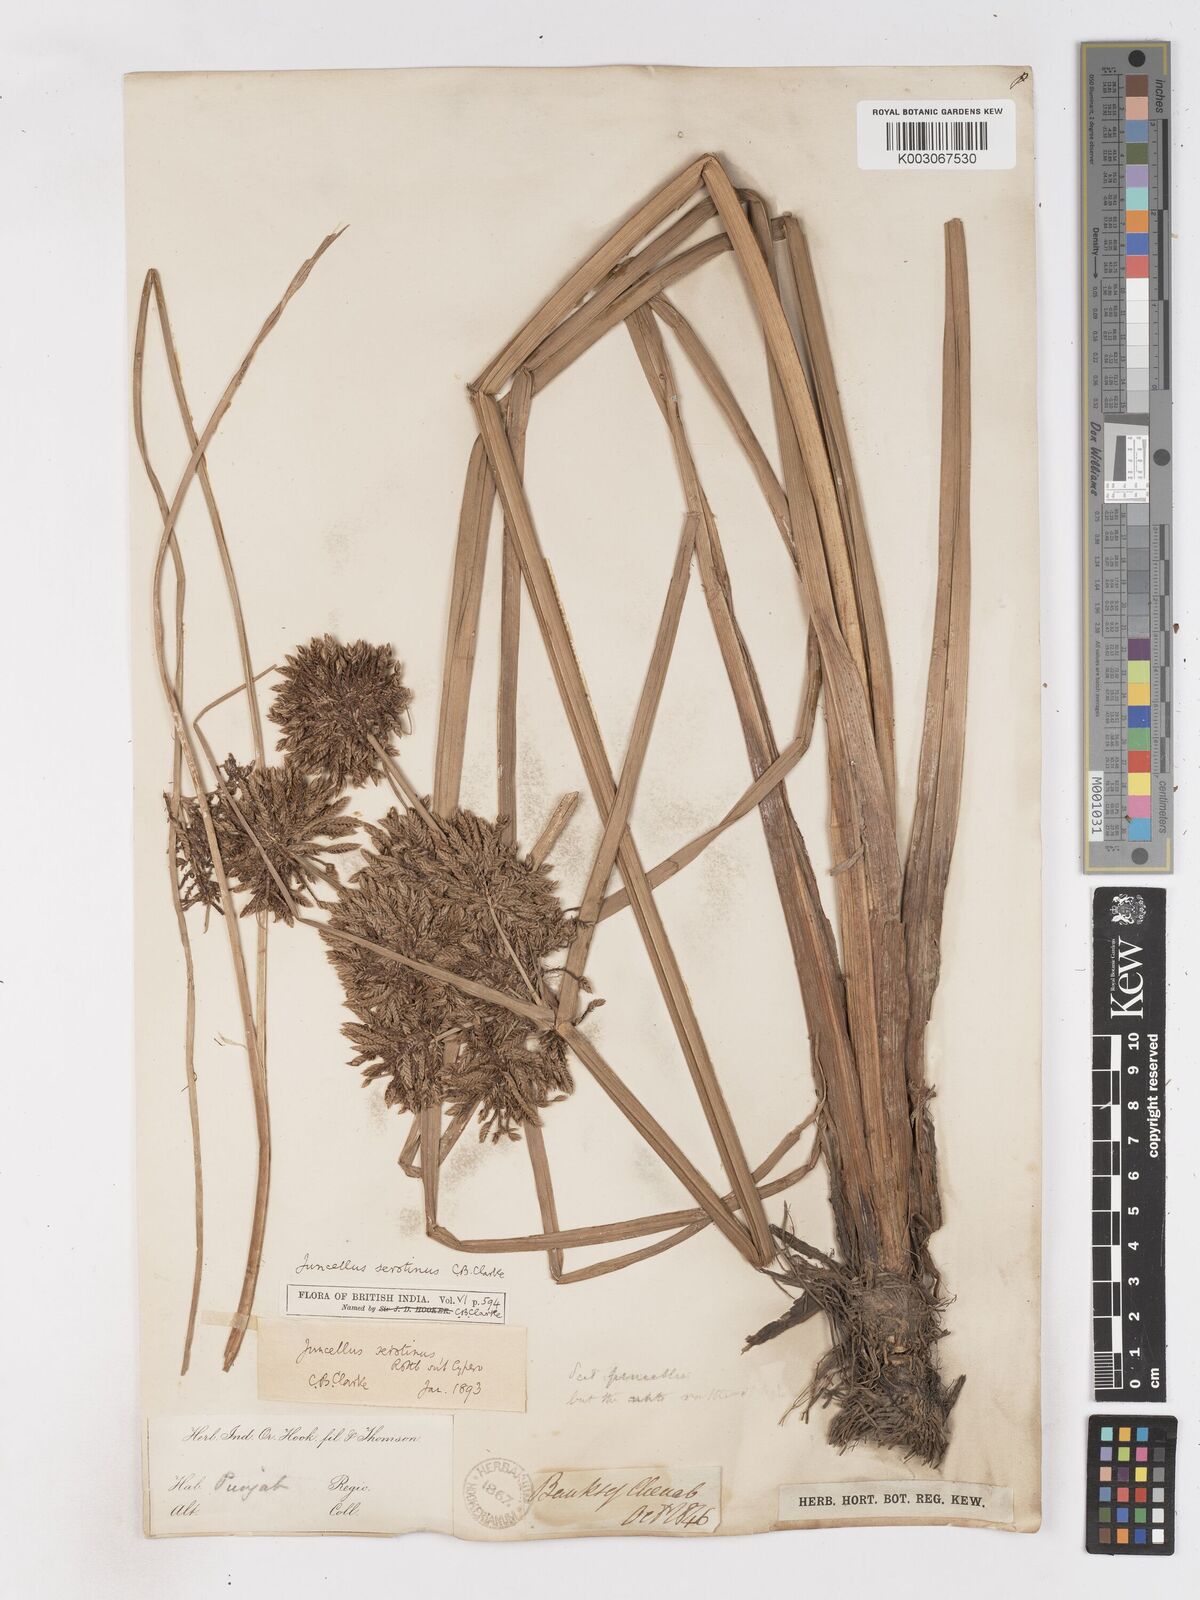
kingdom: Plantae
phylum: Tracheophyta
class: Liliopsida
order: Poales
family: Cyperaceae
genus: Cyperus
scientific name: Cyperus serotinus
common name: Tidalmarsh flatsedge
